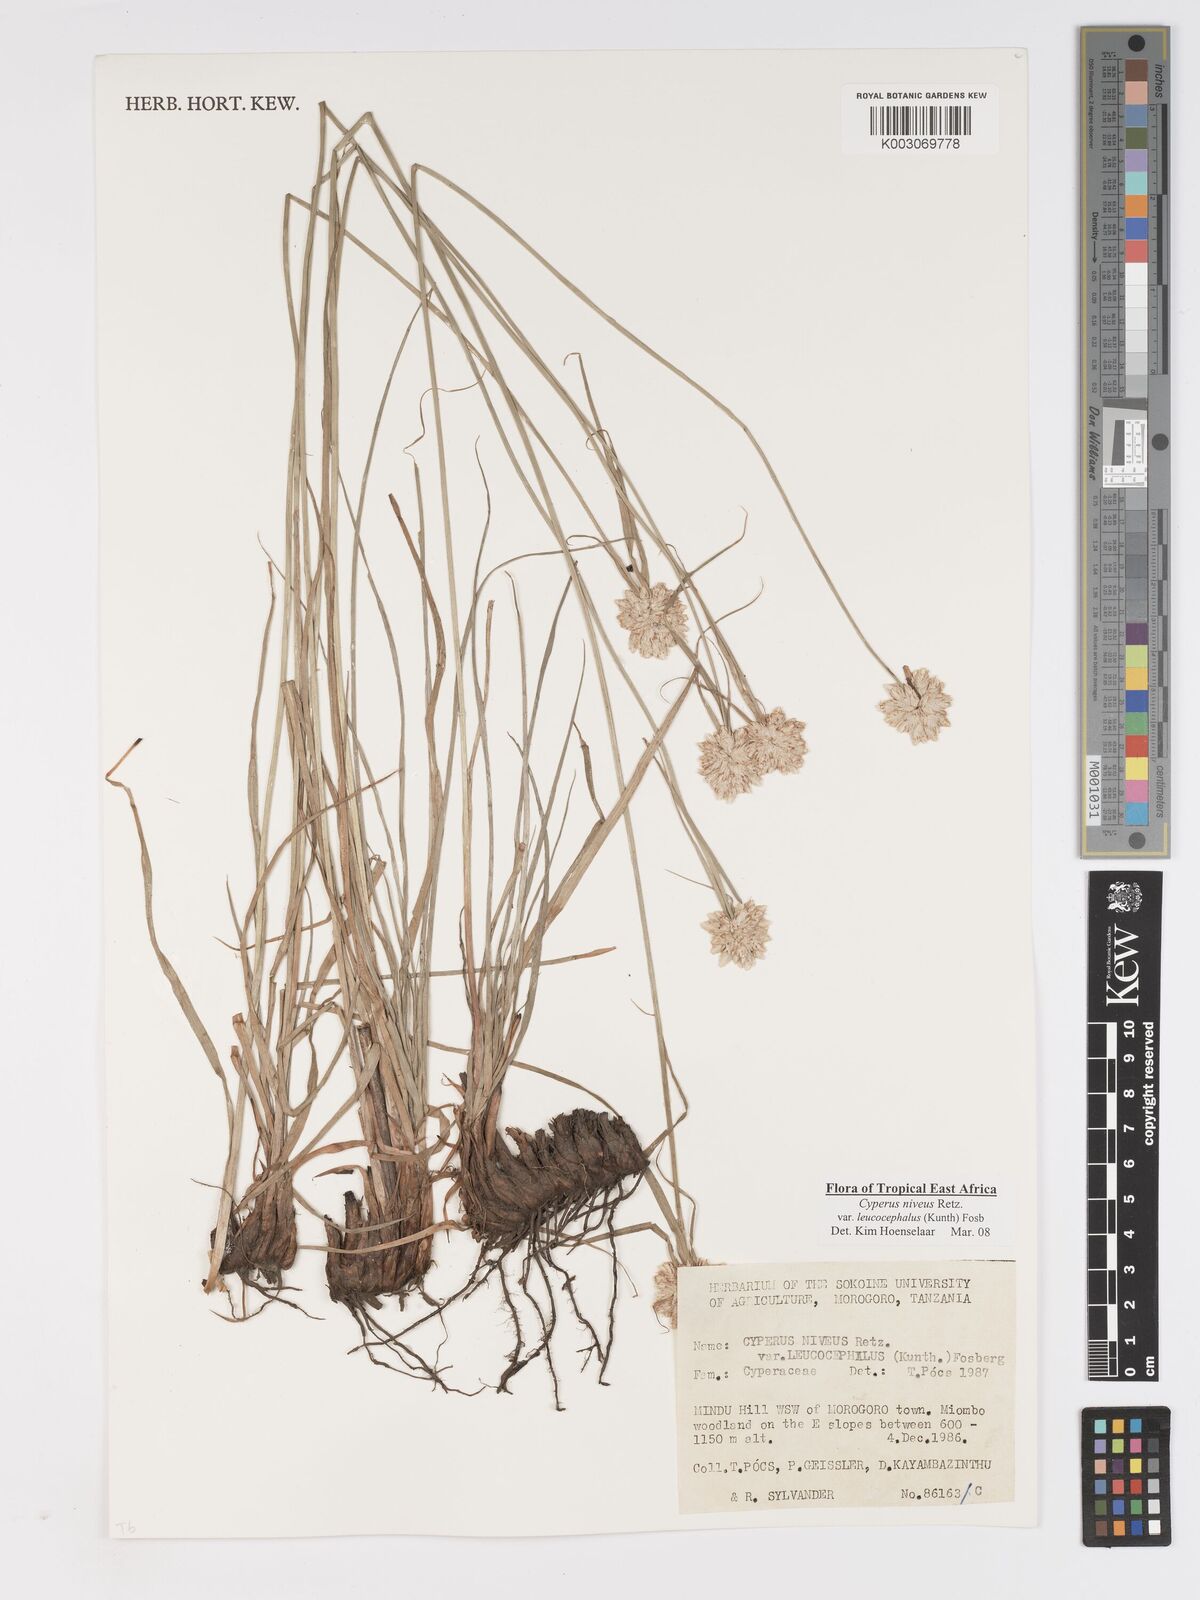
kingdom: Plantae
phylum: Tracheophyta
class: Liliopsida
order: Poales
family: Cyperaceae
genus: Cyperus
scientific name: Cyperus niveus
